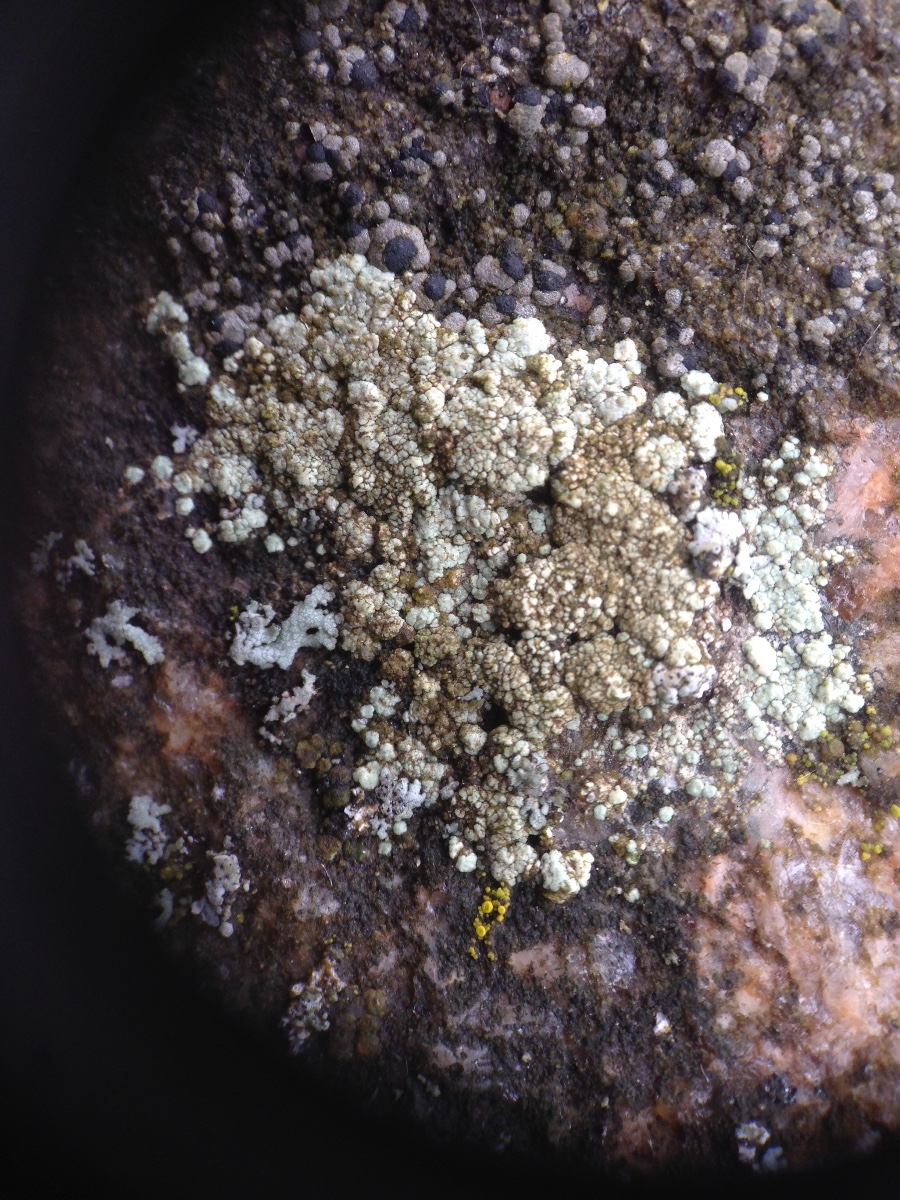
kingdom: Fungi
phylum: Ascomycota
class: Lecanoromycetes
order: Lecanorales
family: Parmeliaceae
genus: Lichen
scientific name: Lichen
